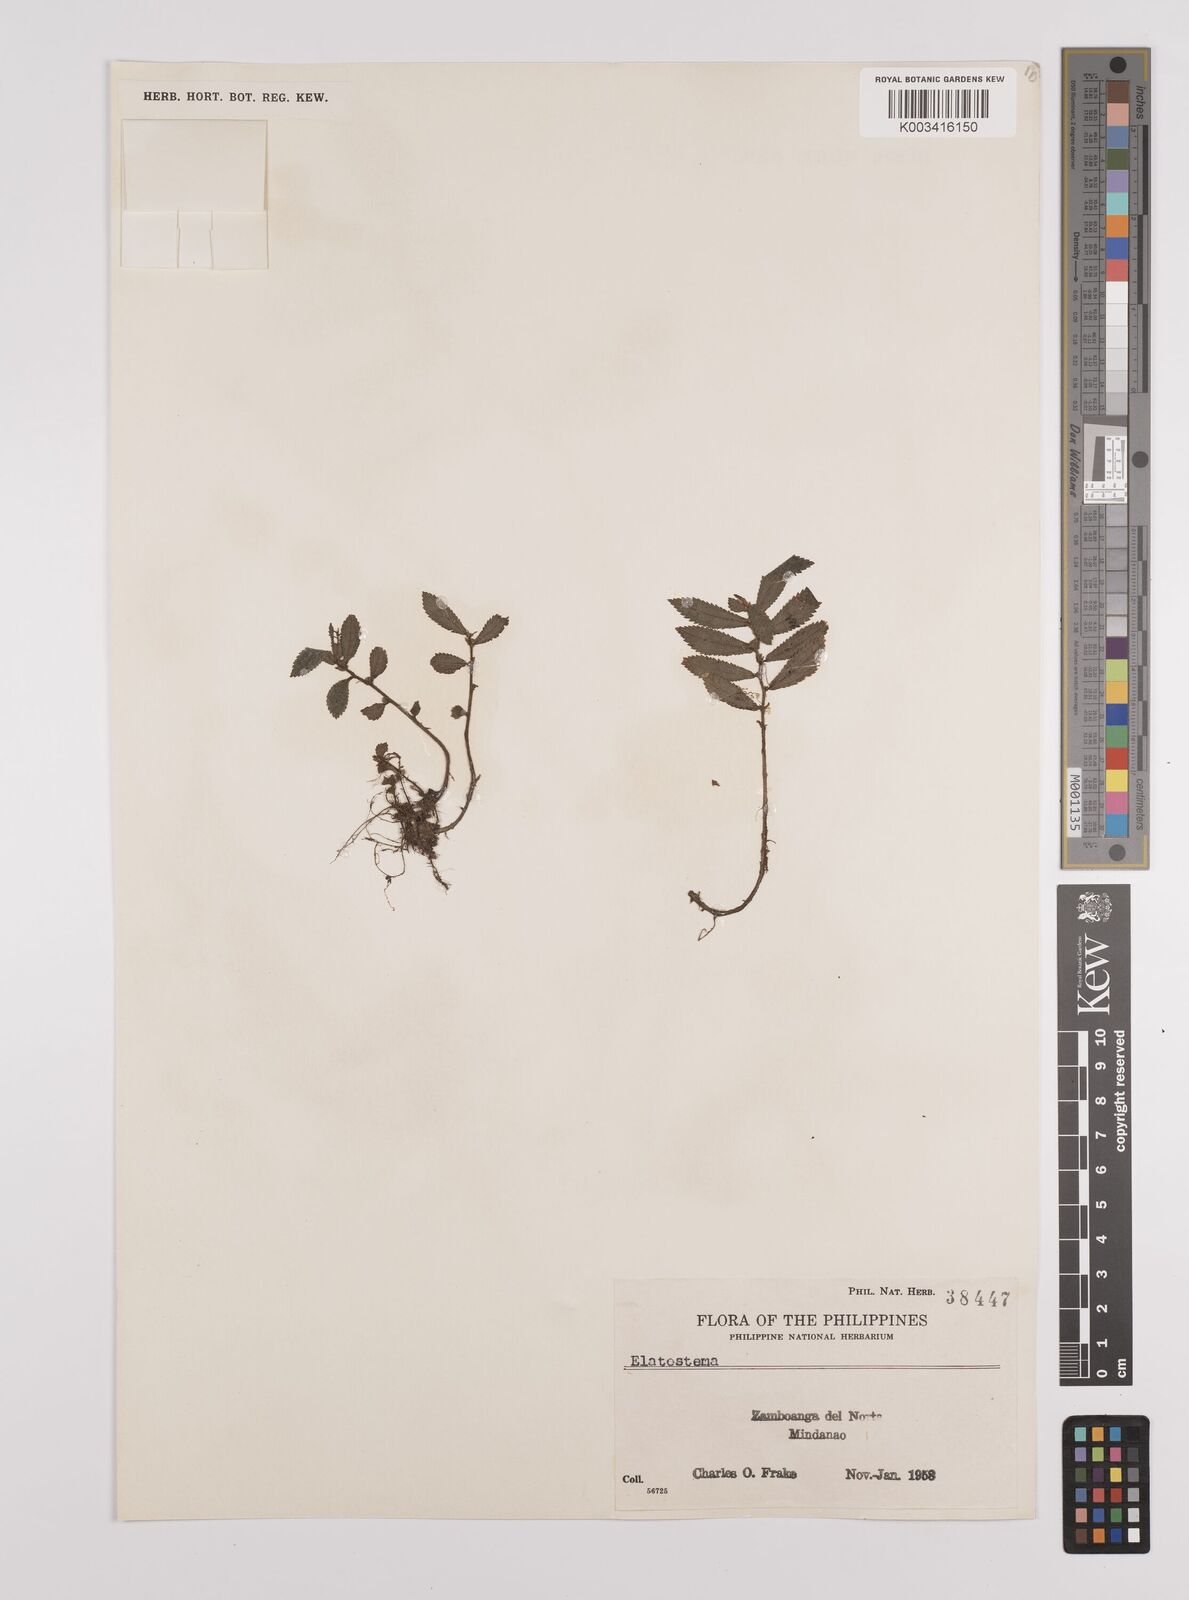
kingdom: Plantae
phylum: Tracheophyta
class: Magnoliopsida
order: Rosales
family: Urticaceae
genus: Elatostema
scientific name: Elatostema
